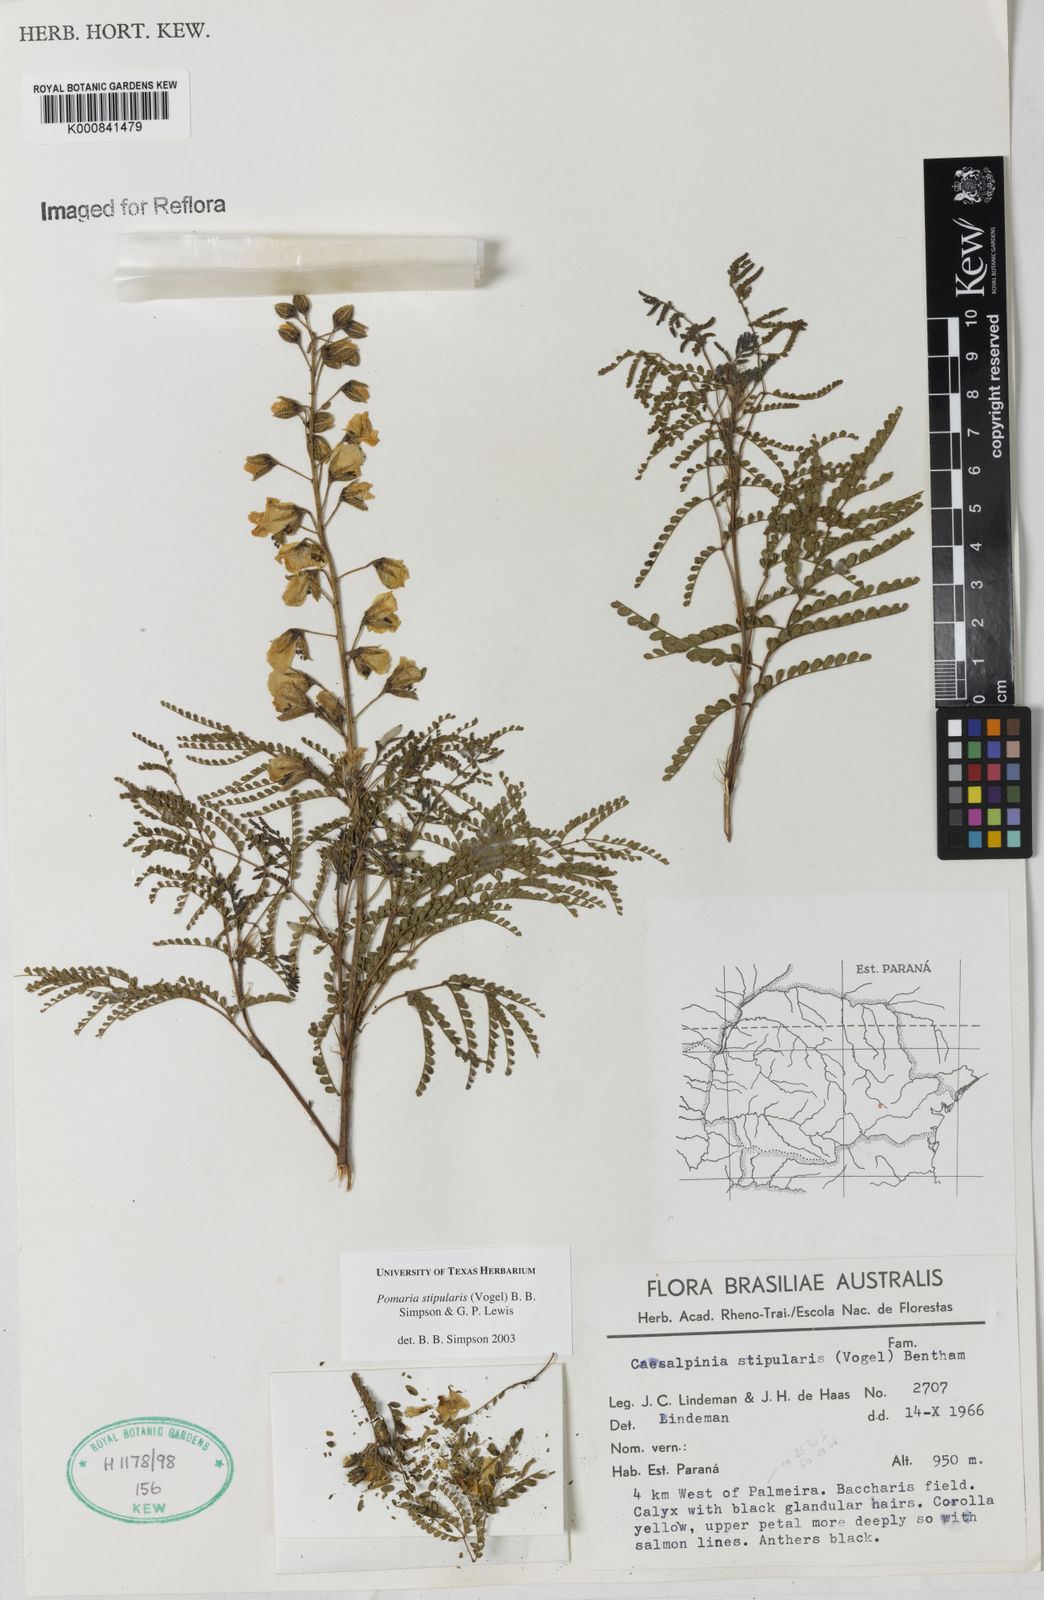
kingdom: Plantae
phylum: Tracheophyta
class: Magnoliopsida
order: Fabales
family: Fabaceae
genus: Pomaria
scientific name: Pomaria stipularis
